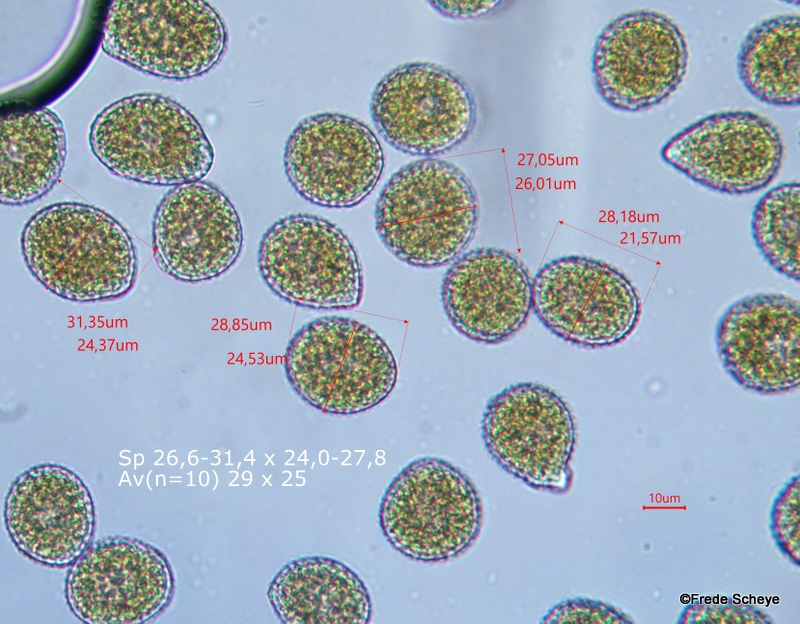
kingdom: Fungi
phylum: Basidiomycota
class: Pucciniomycetes
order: Pucciniales
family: Pucciniastraceae
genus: Pucciniastrum
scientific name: Pucciniastrum symphyti
